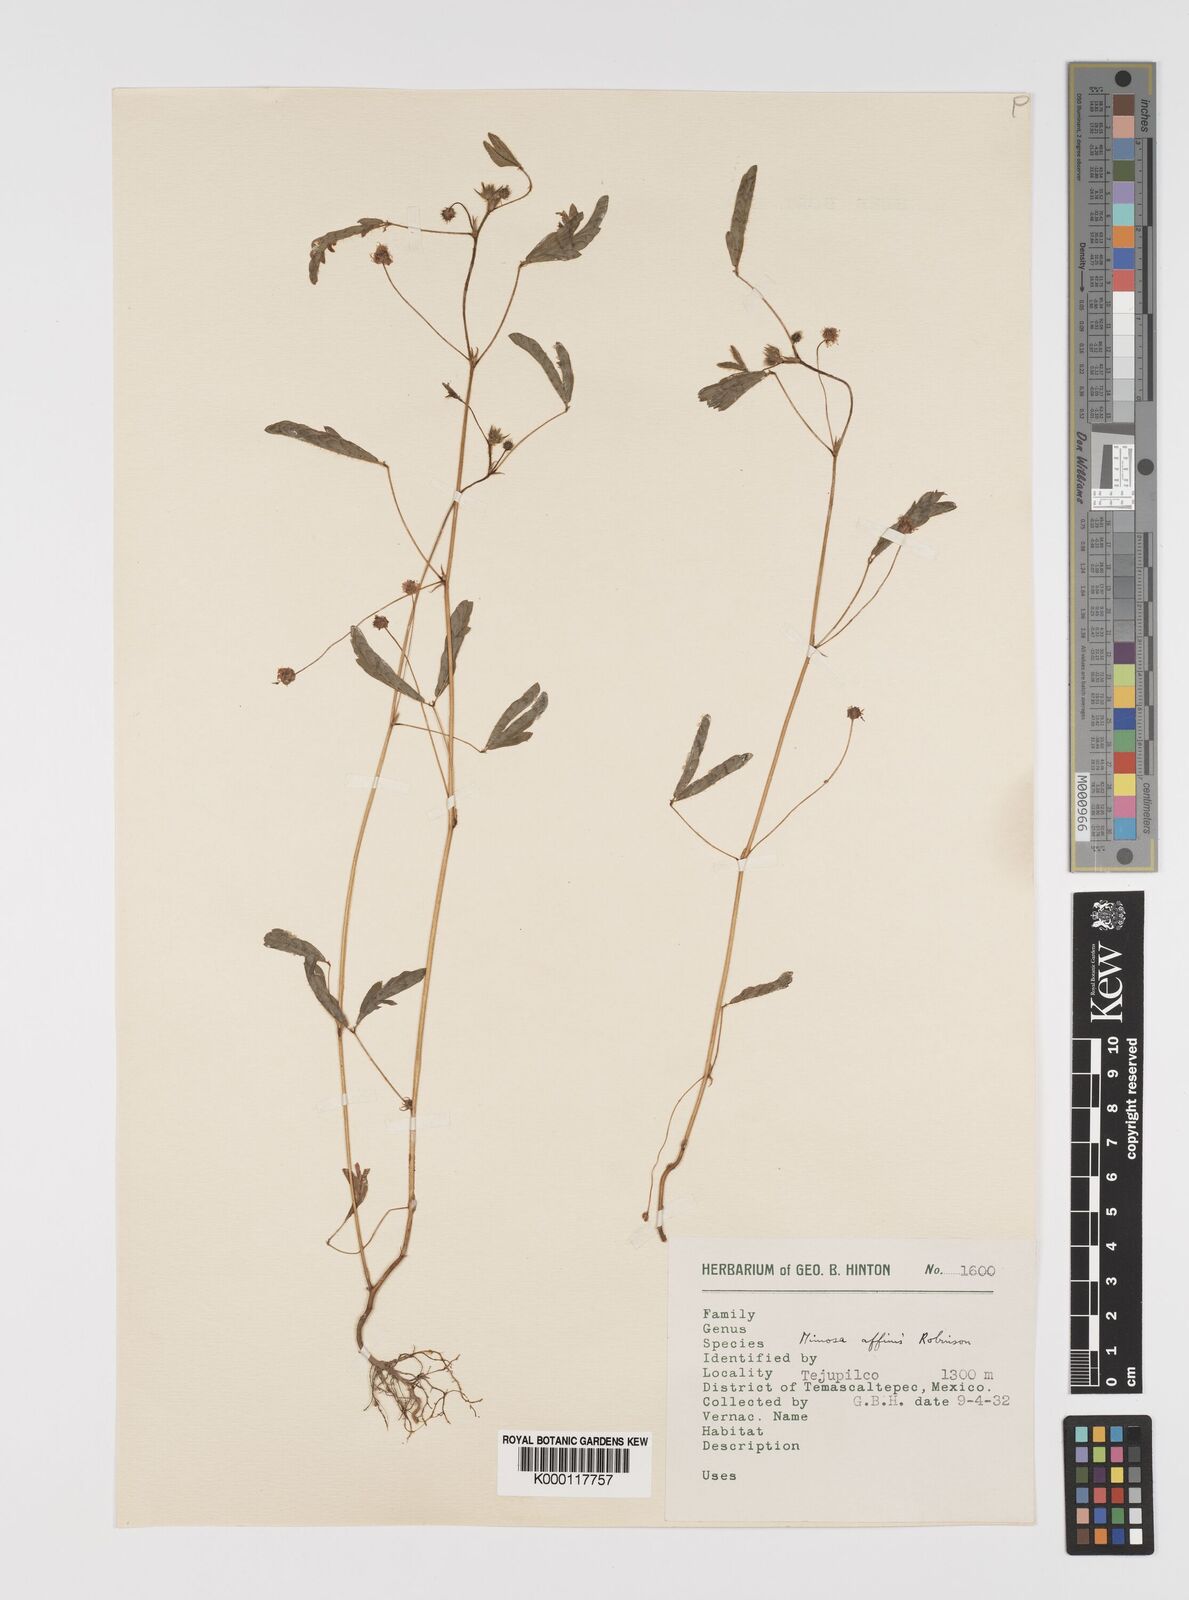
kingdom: Plantae
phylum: Tracheophyta
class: Magnoliopsida
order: Fabales
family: Fabaceae
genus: Mimosa
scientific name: Mimosa affinis
